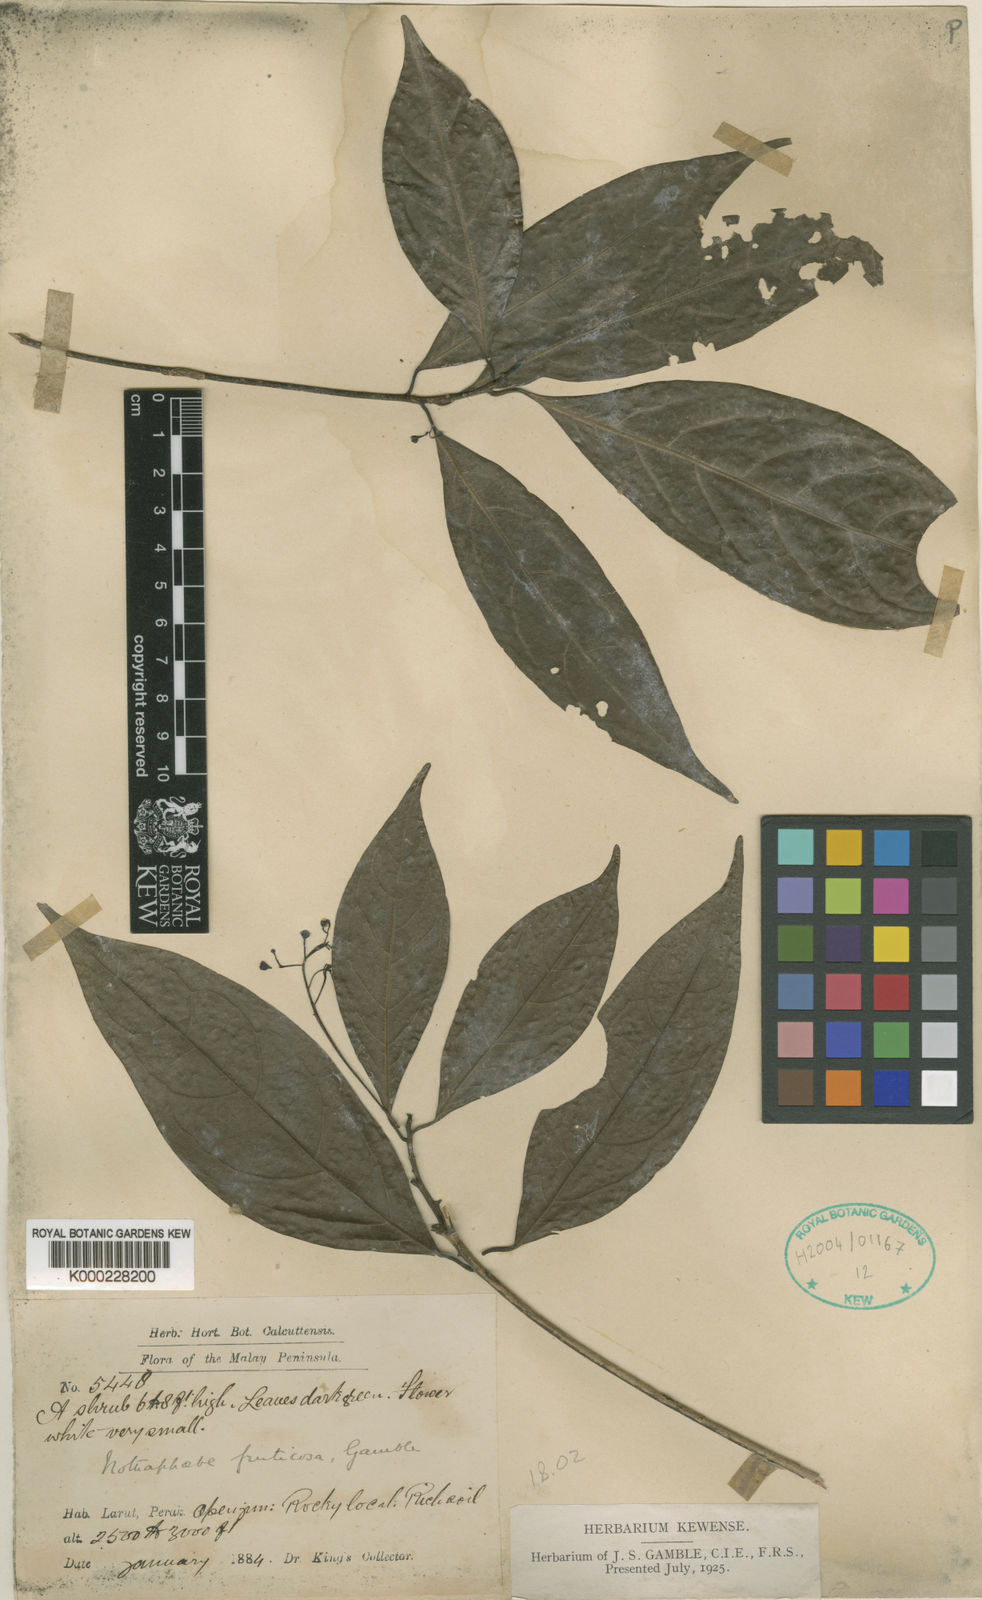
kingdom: Plantae
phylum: Tracheophyta
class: Magnoliopsida
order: Laurales
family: Lauraceae
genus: Nothaphoebe
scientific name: Nothaphoebe
